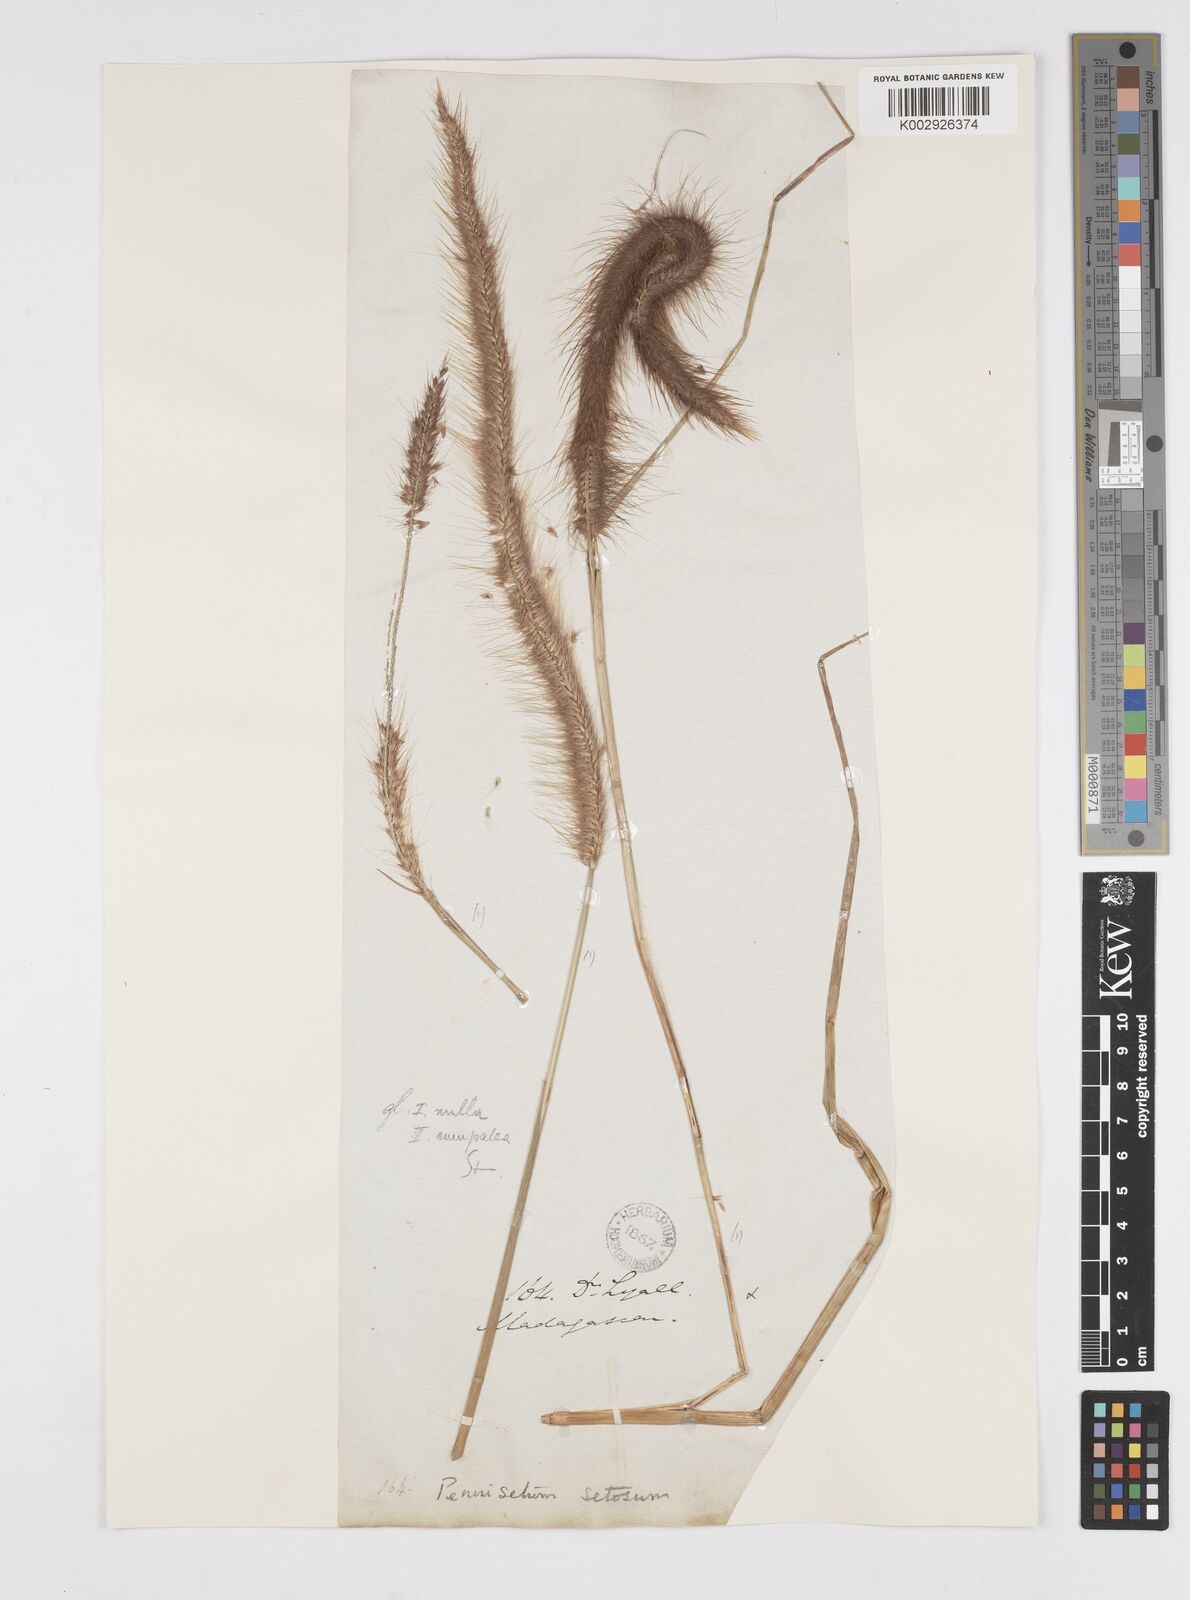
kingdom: Plantae
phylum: Tracheophyta
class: Liliopsida
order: Poales
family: Poaceae
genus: Setaria
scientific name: Setaria parviflora
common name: Knotroot bristle-grass
